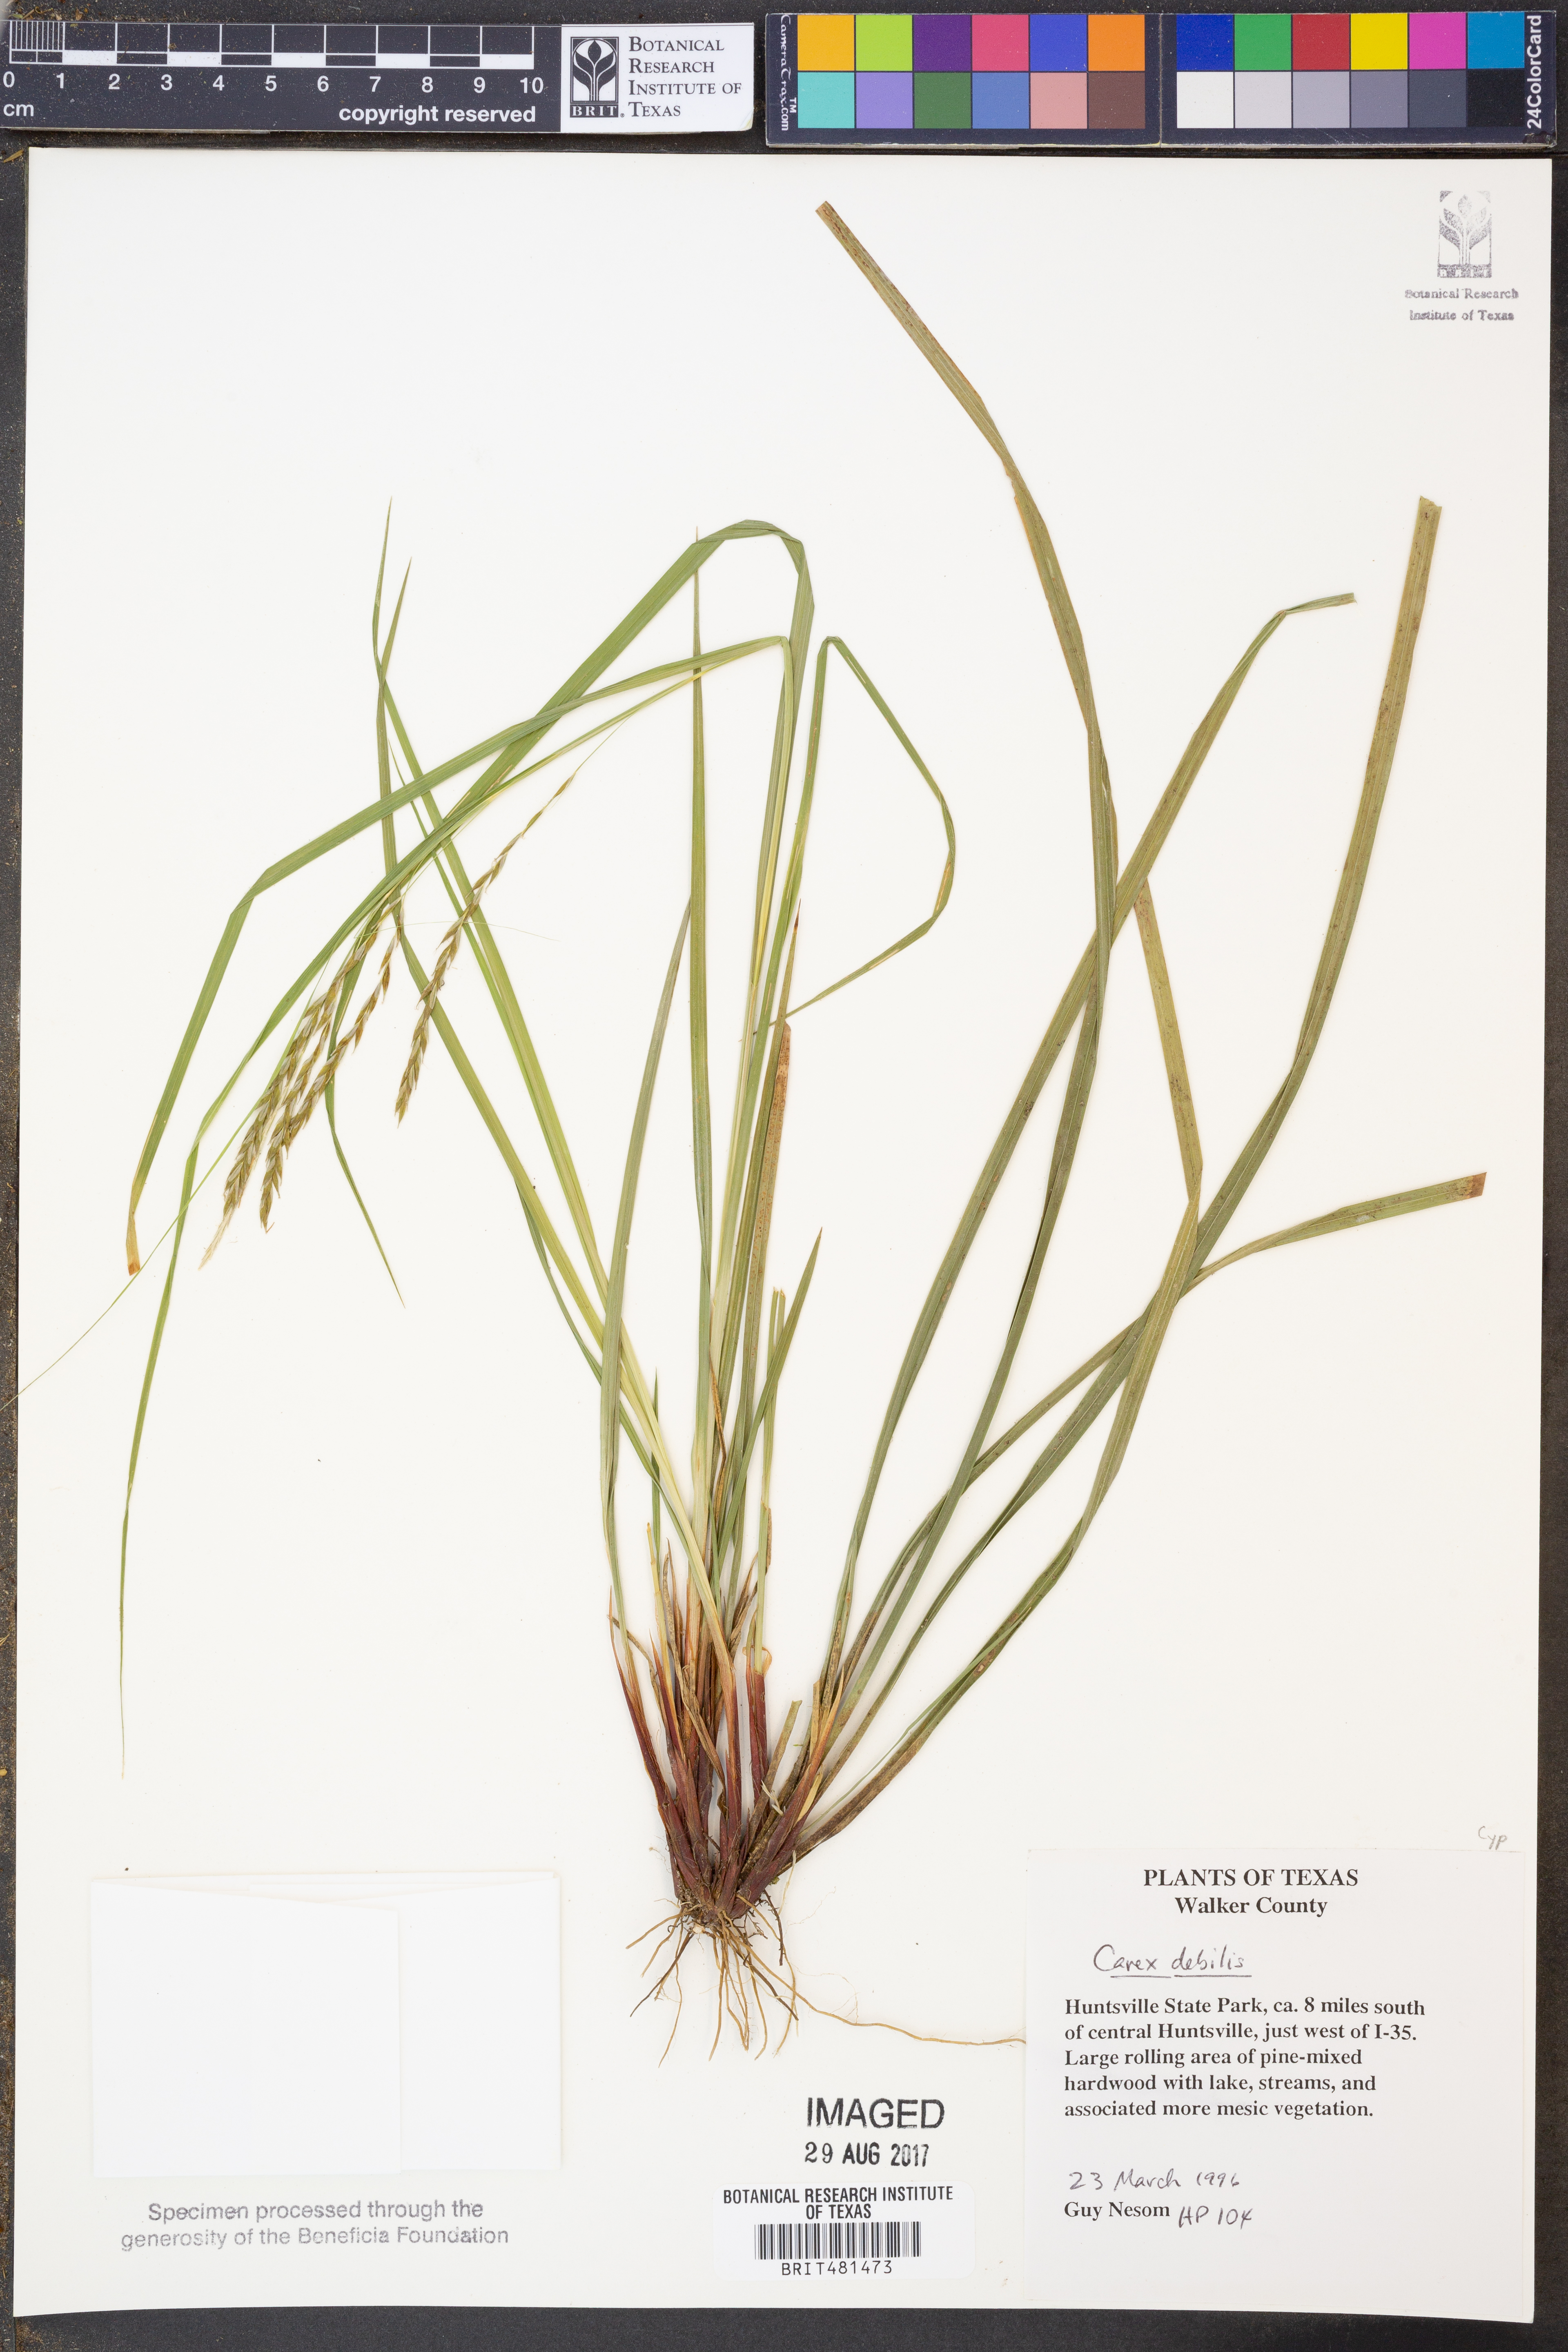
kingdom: Plantae
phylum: Tracheophyta
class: Liliopsida
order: Poales
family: Cyperaceae
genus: Carex
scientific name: Carex debilis
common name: White-edge sedge
